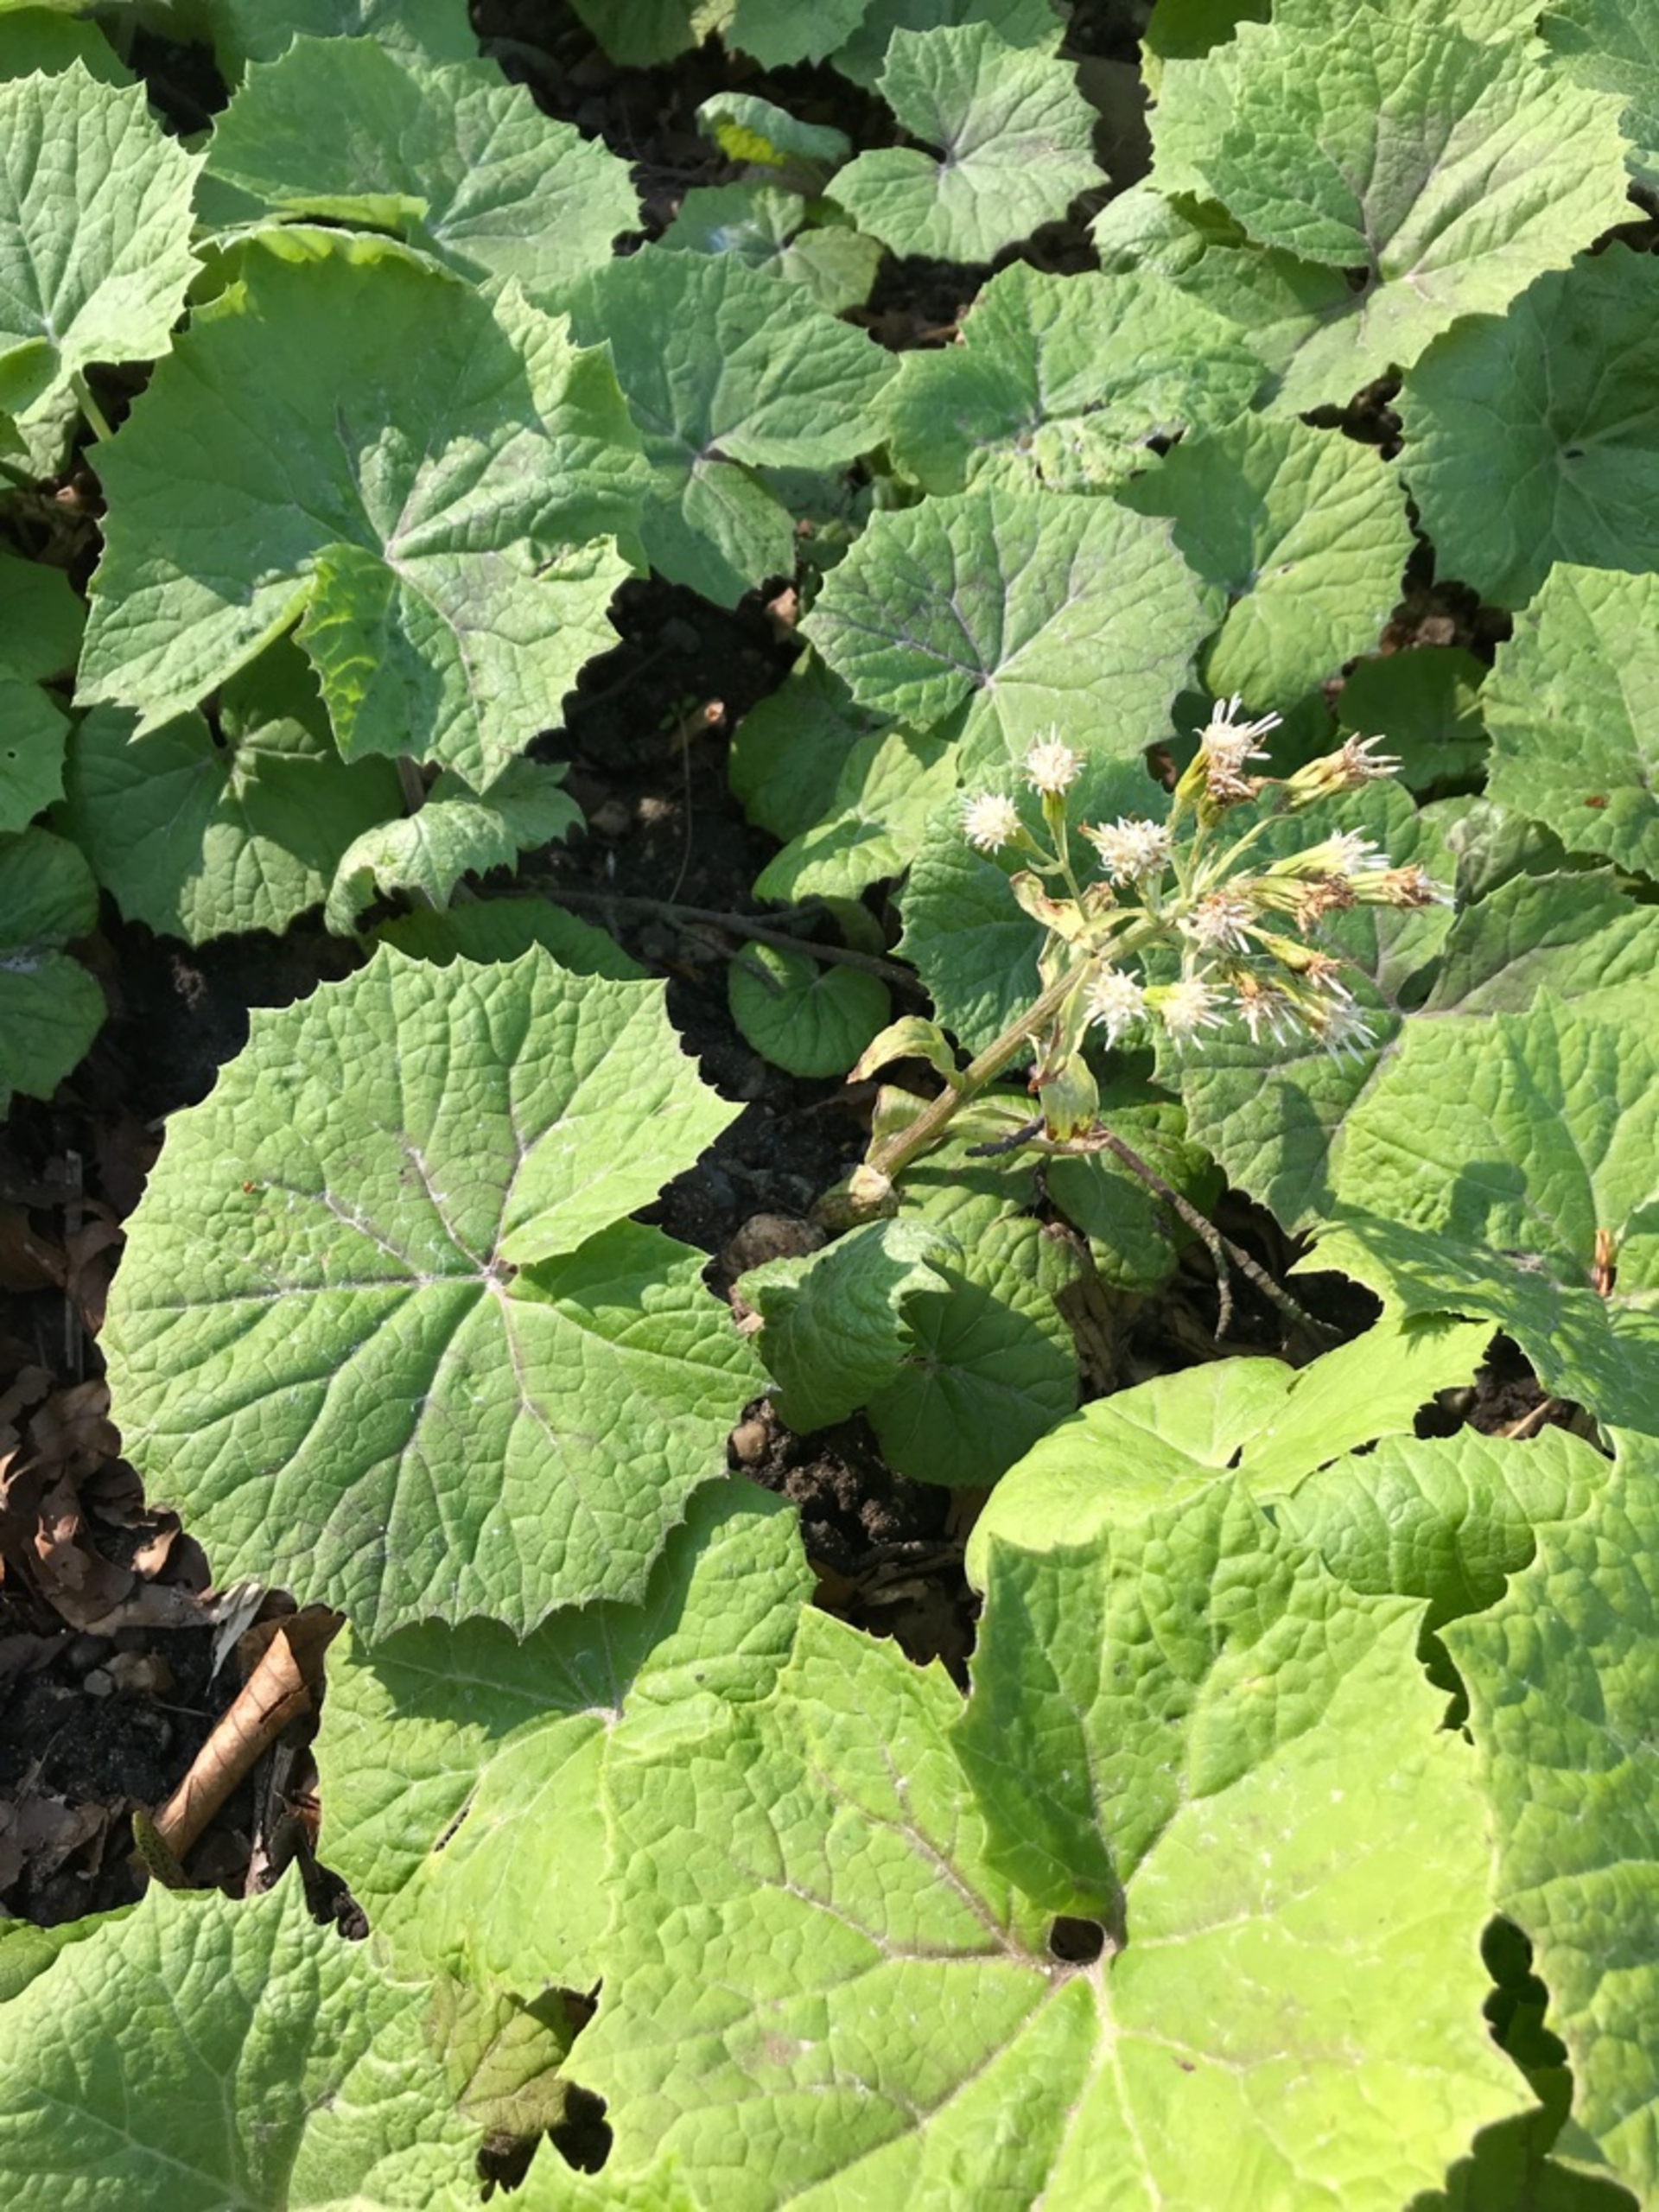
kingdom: Plantae
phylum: Tracheophyta
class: Magnoliopsida
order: Asterales
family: Asteraceae
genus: Petasites
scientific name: Petasites albus
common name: Hvid hestehov
